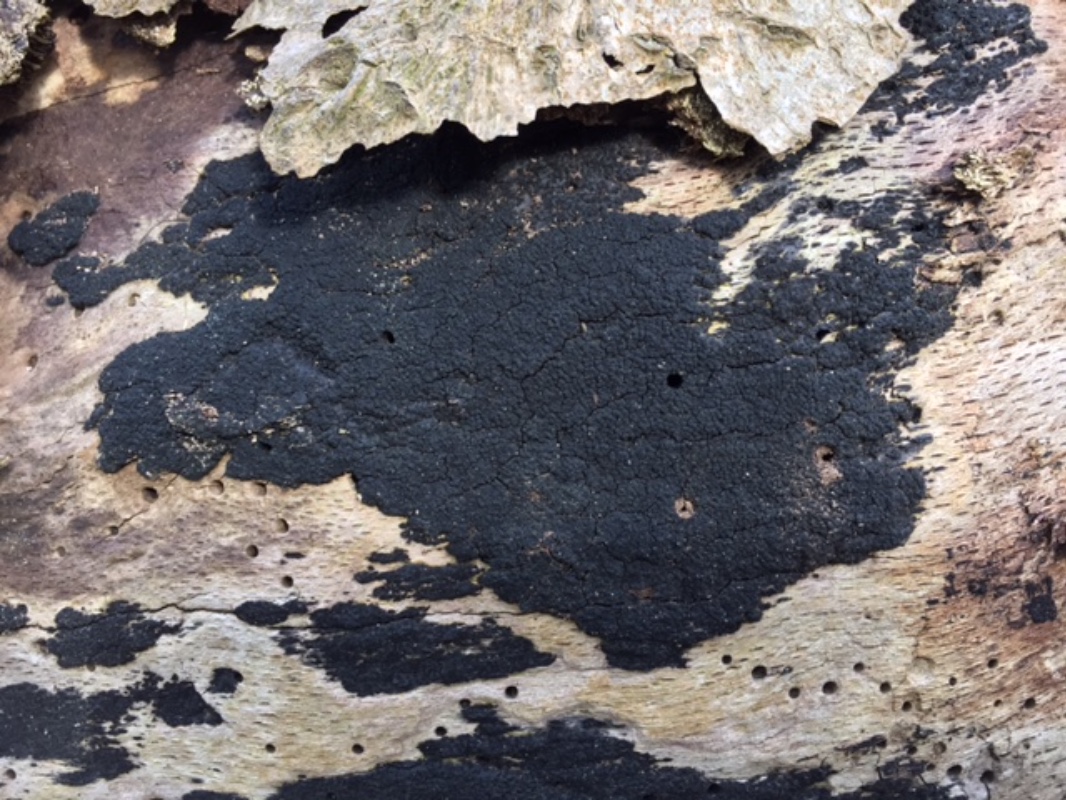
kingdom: Fungi
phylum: Ascomycota
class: Sordariomycetes
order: Xylariales
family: Diatrypaceae
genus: Eutypa
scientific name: Eutypa spinosa
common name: grov kulskorpe
